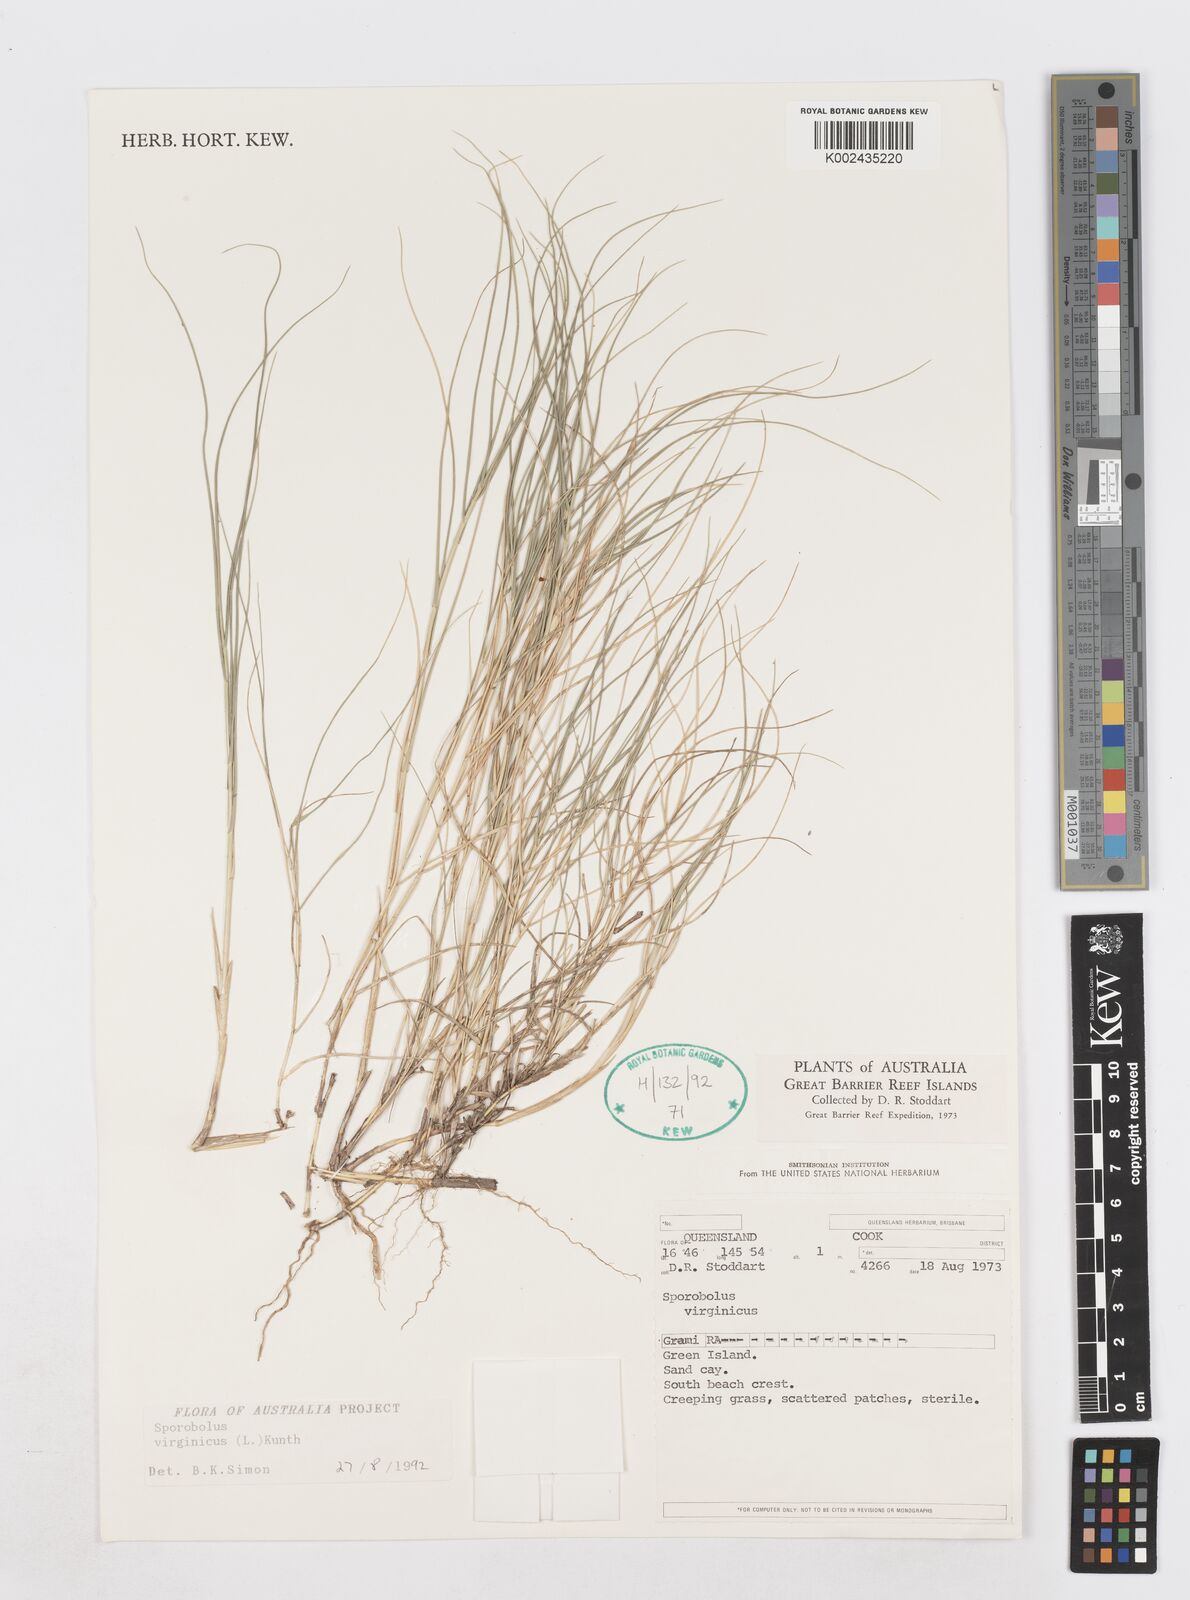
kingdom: Plantae
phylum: Tracheophyta
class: Liliopsida
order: Poales
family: Poaceae
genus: Sporobolus
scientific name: Sporobolus virginicus
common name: Beach dropseed
